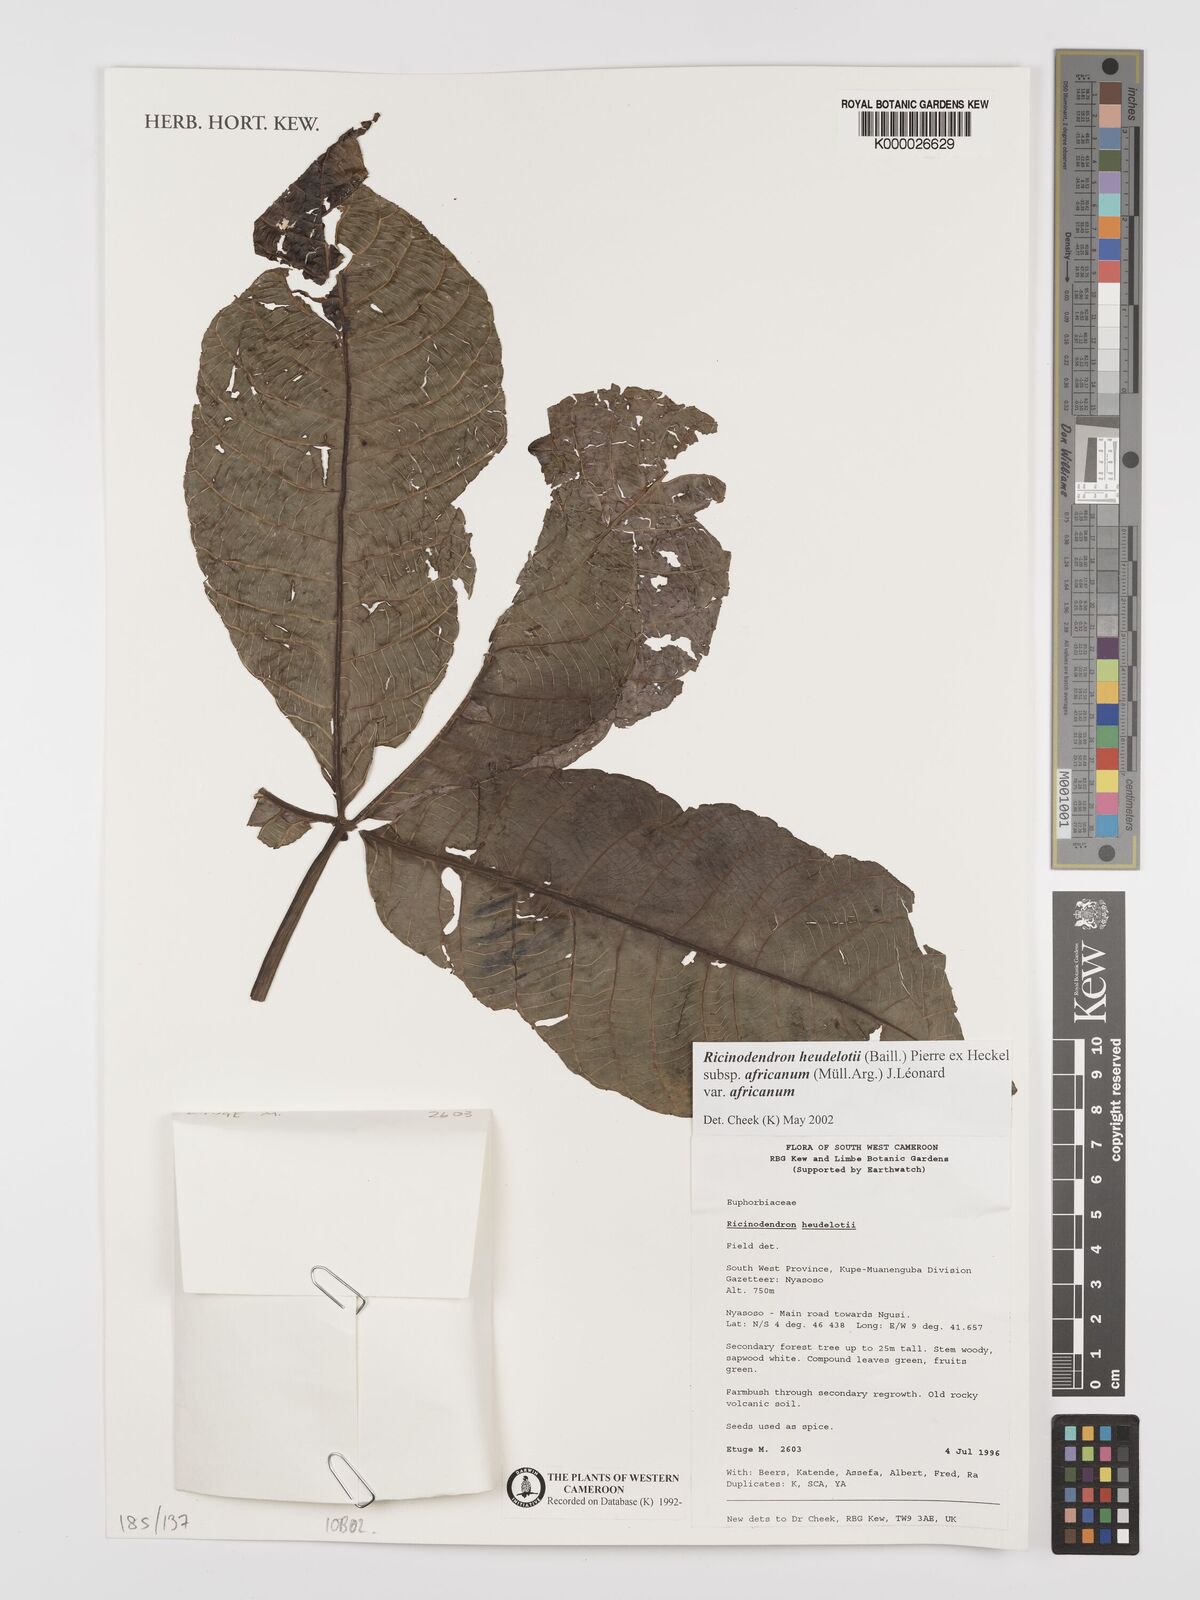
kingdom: Plantae
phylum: Tracheophyta
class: Magnoliopsida
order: Malpighiales
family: Euphorbiaceae
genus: Ricinodendron
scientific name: Ricinodendron heudelotii
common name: African nut-tree
